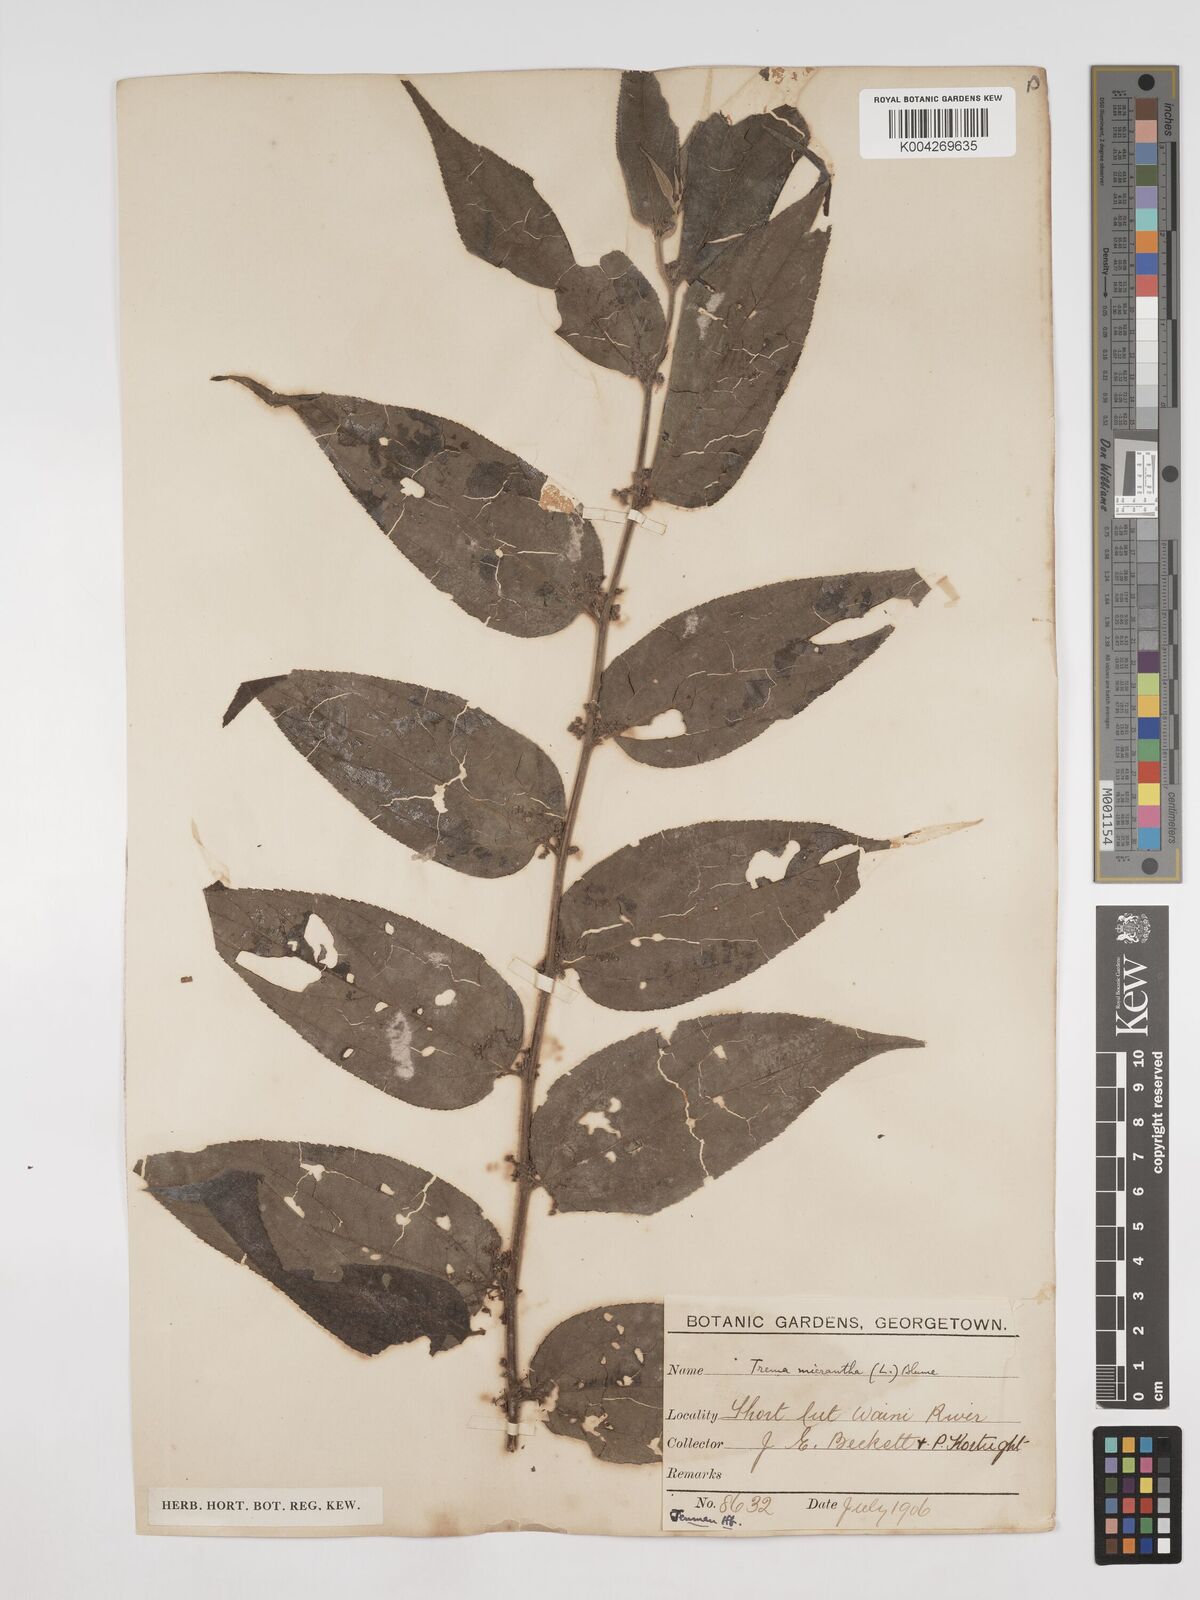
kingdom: Plantae
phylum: Tracheophyta
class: Magnoliopsida
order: Rosales
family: Cannabaceae
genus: Trema
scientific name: Trema micranthum
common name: Jamaican nettletree
